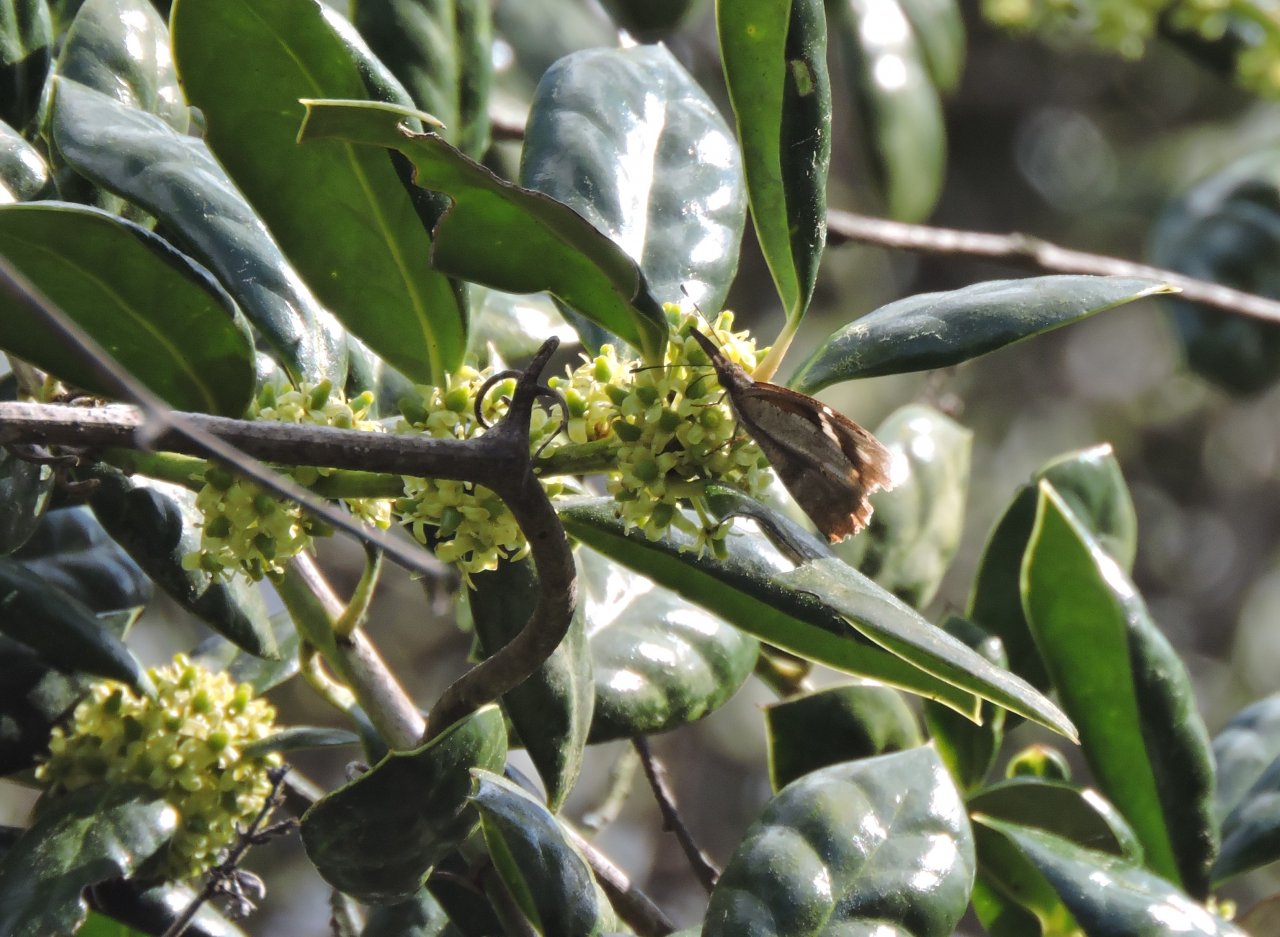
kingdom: Animalia
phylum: Arthropoda
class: Insecta
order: Lepidoptera
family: Nymphalidae
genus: Libytheana
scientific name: Libytheana carinenta
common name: American Snout
